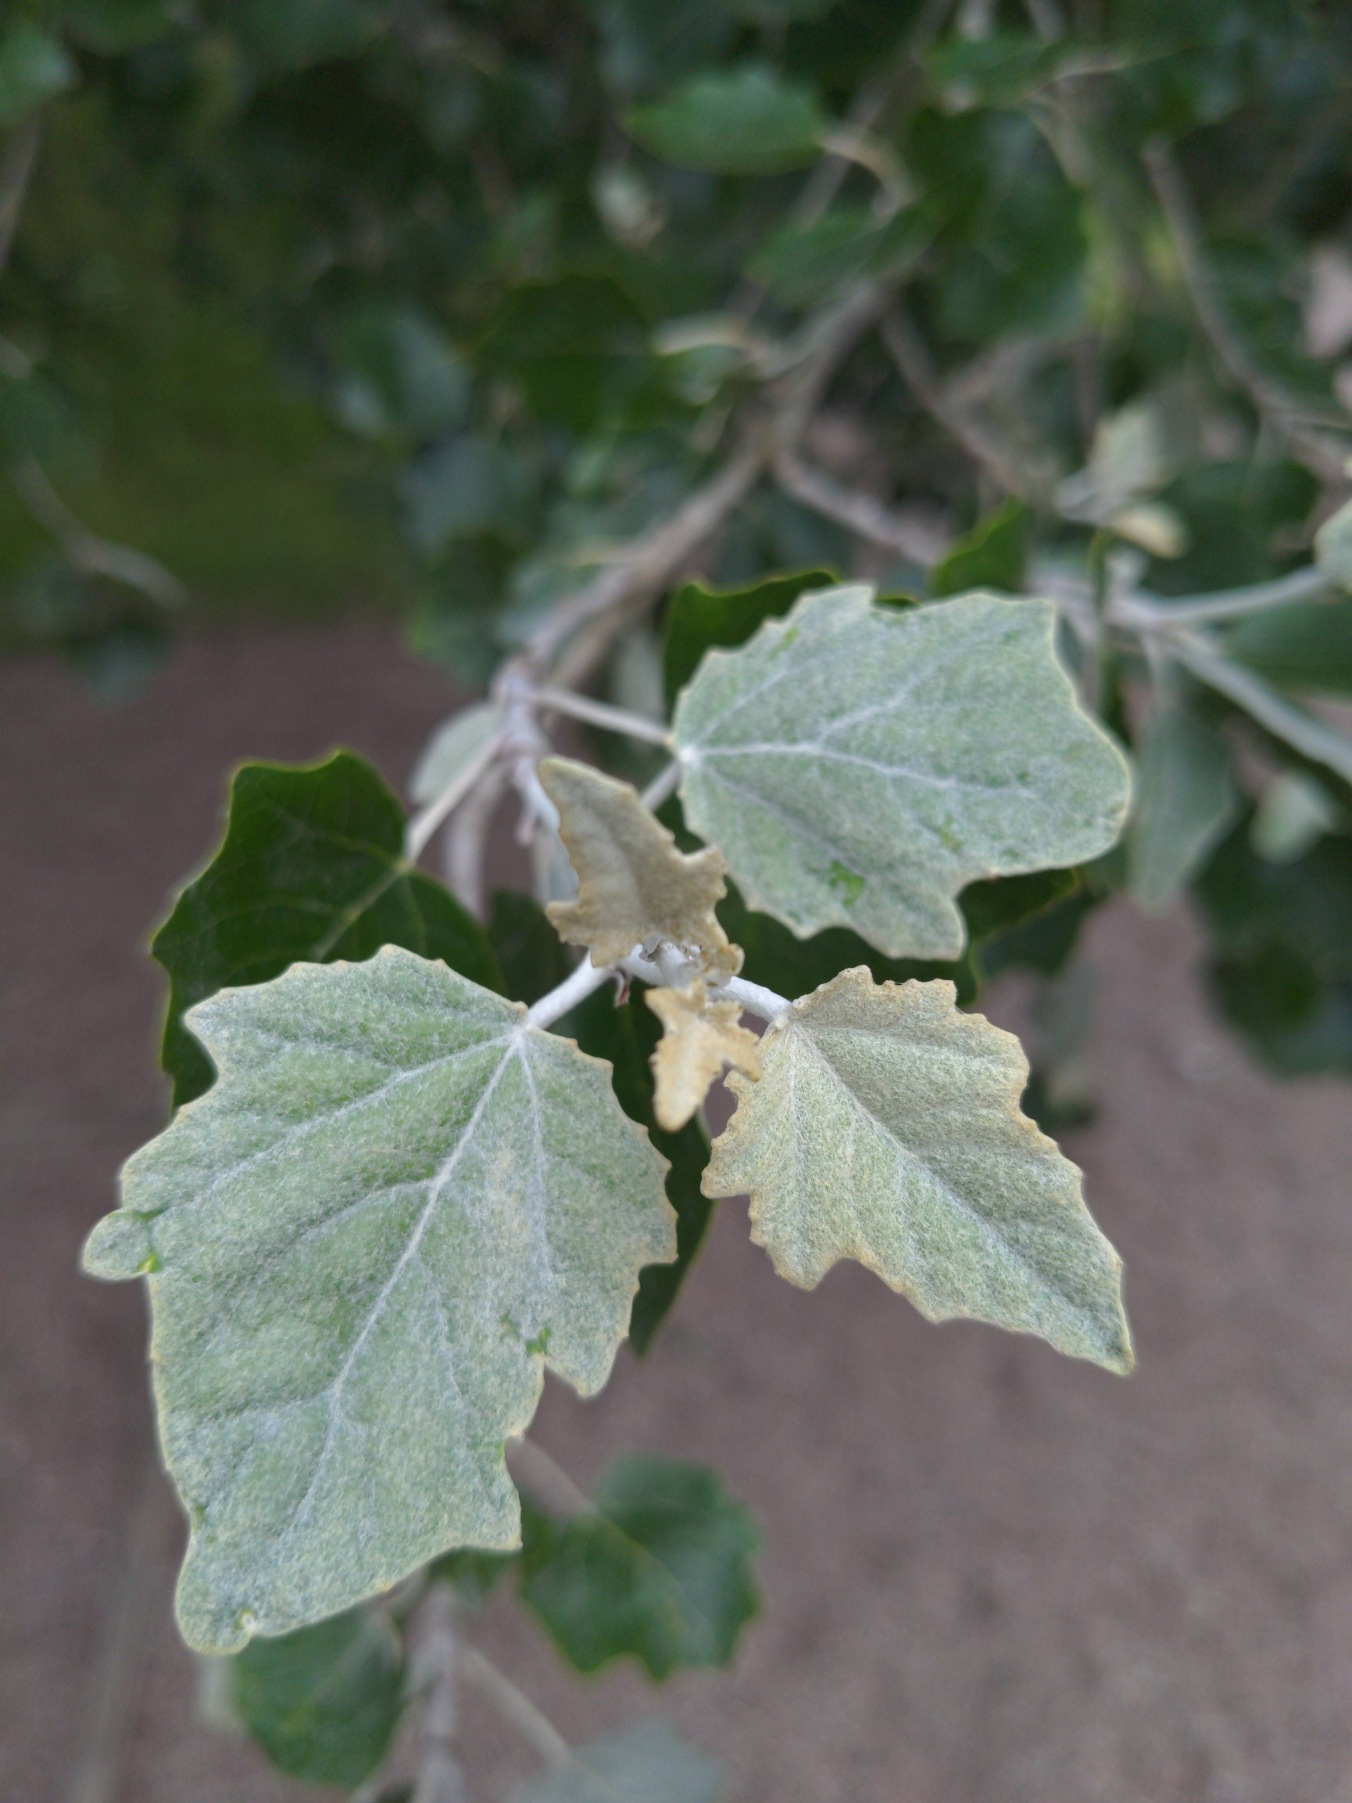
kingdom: Plantae
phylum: Tracheophyta
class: Magnoliopsida
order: Malpighiales
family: Salicaceae
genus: Populus
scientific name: Populus alba
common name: Sølv-poppel
